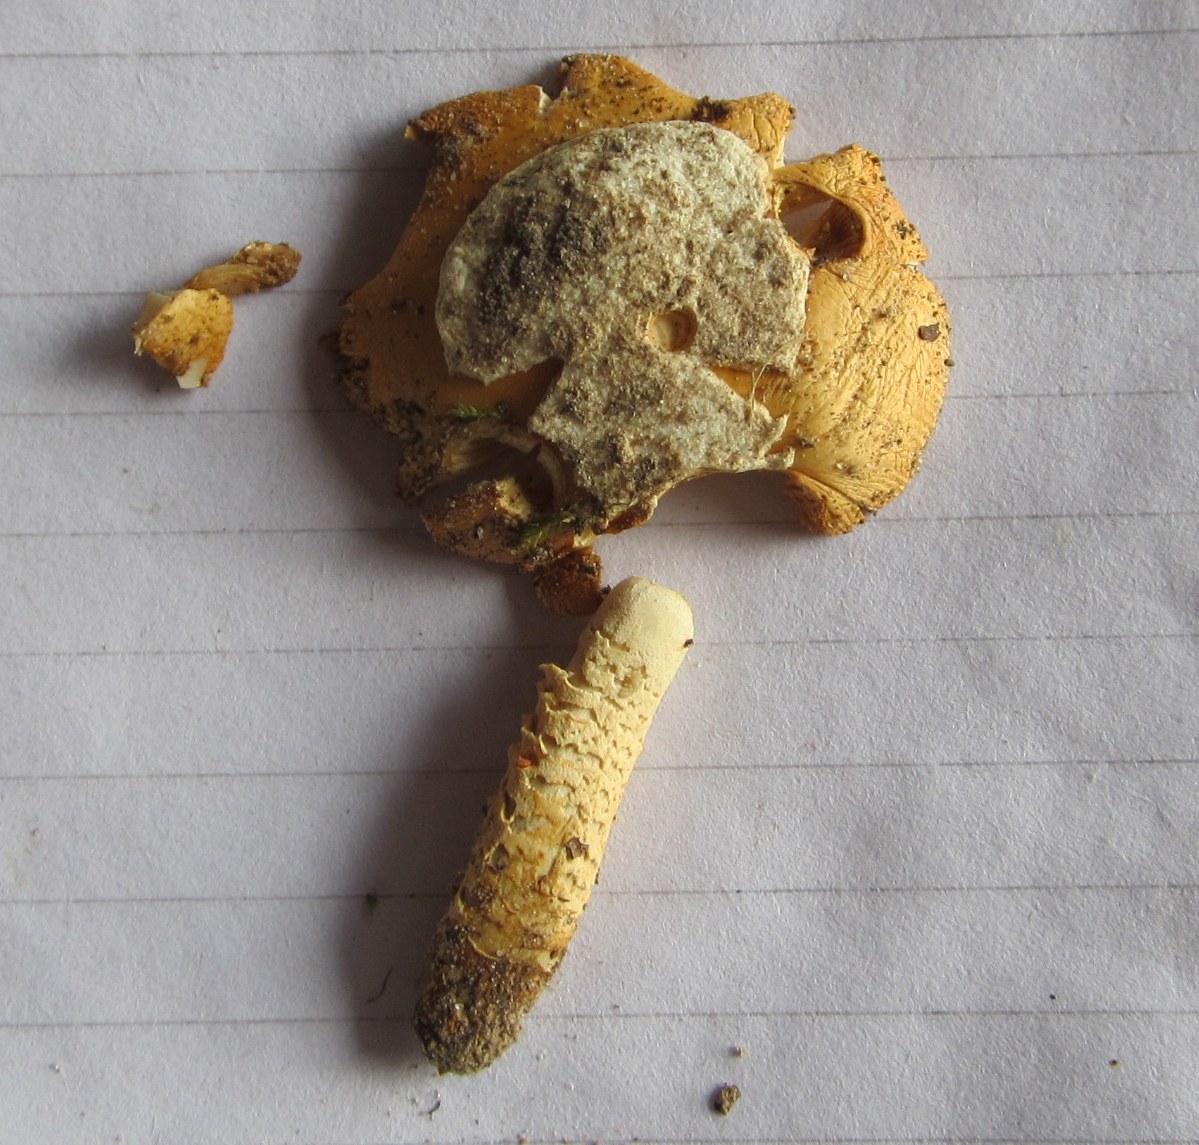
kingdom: Fungi
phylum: Basidiomycota
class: Agaricomycetes
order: Agaricales
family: Amanitaceae
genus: Amanita
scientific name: Amanita crocea
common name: gylden kam-fluesvamp
